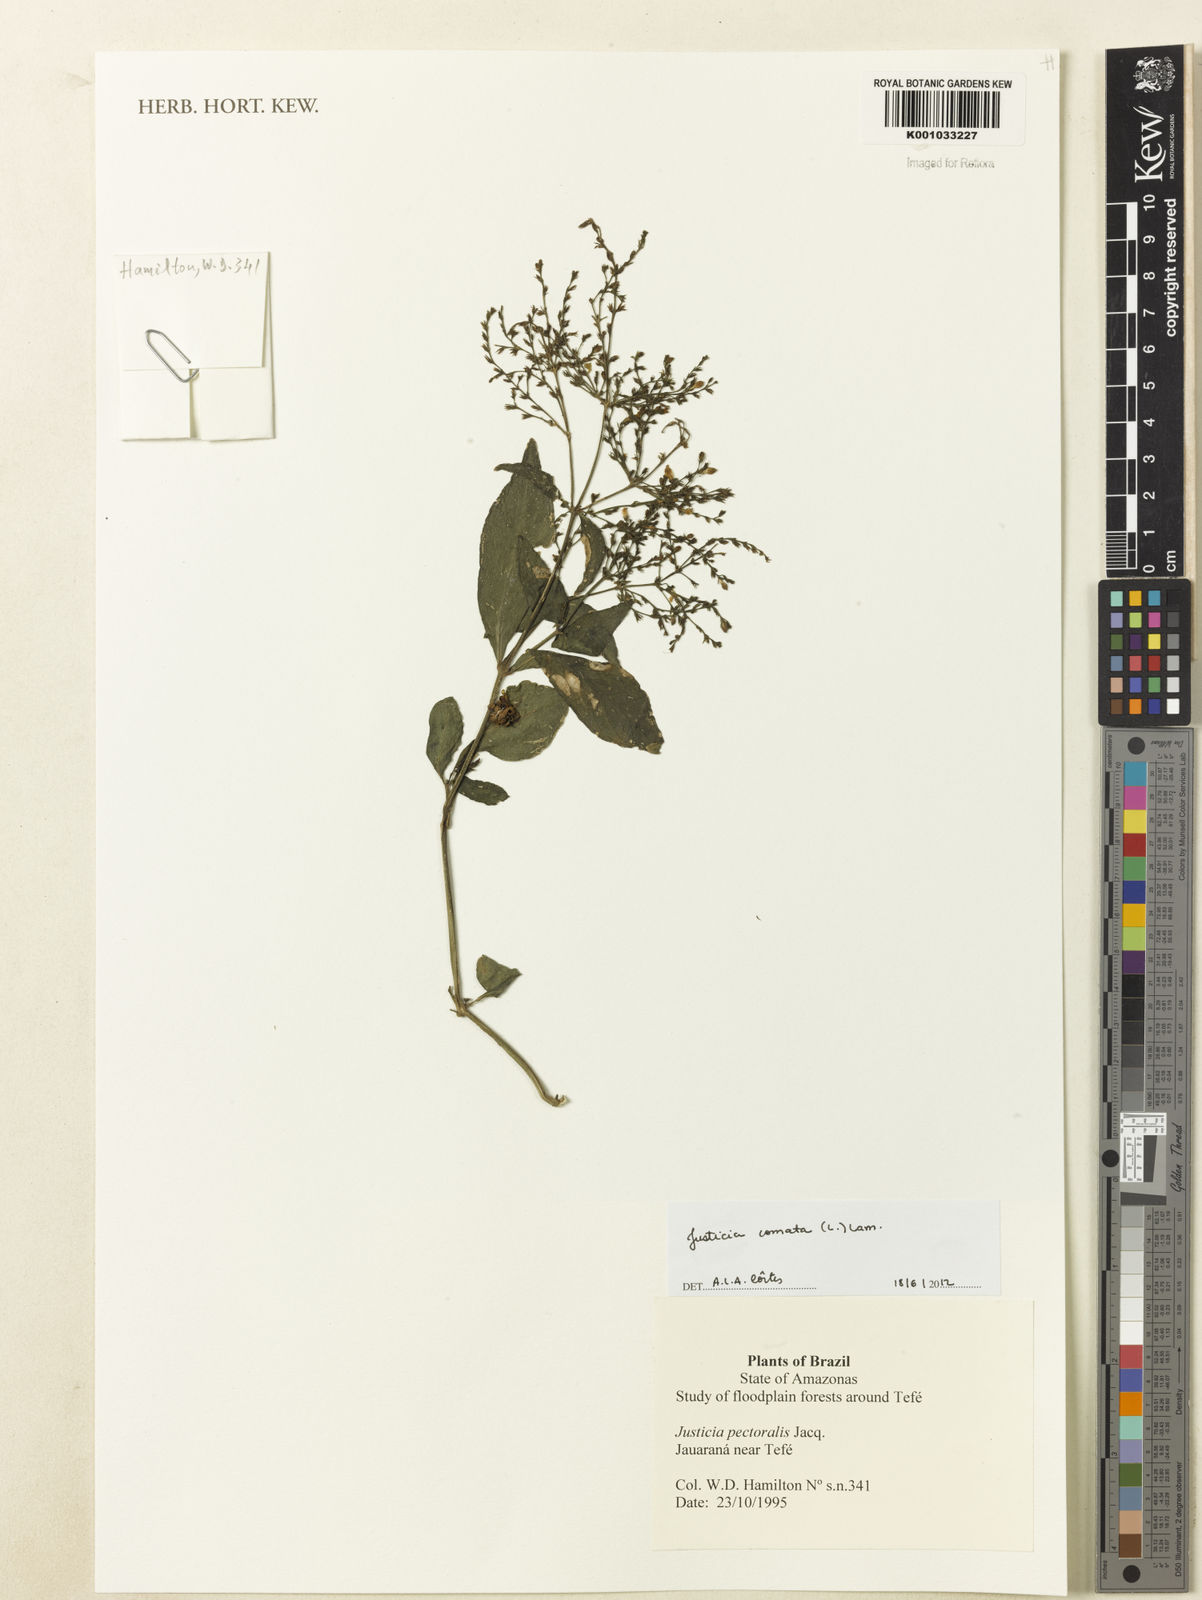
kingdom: Plantae
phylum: Tracheophyta
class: Magnoliopsida
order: Lamiales
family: Acanthaceae
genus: Dianthera
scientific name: Dianthera comata
